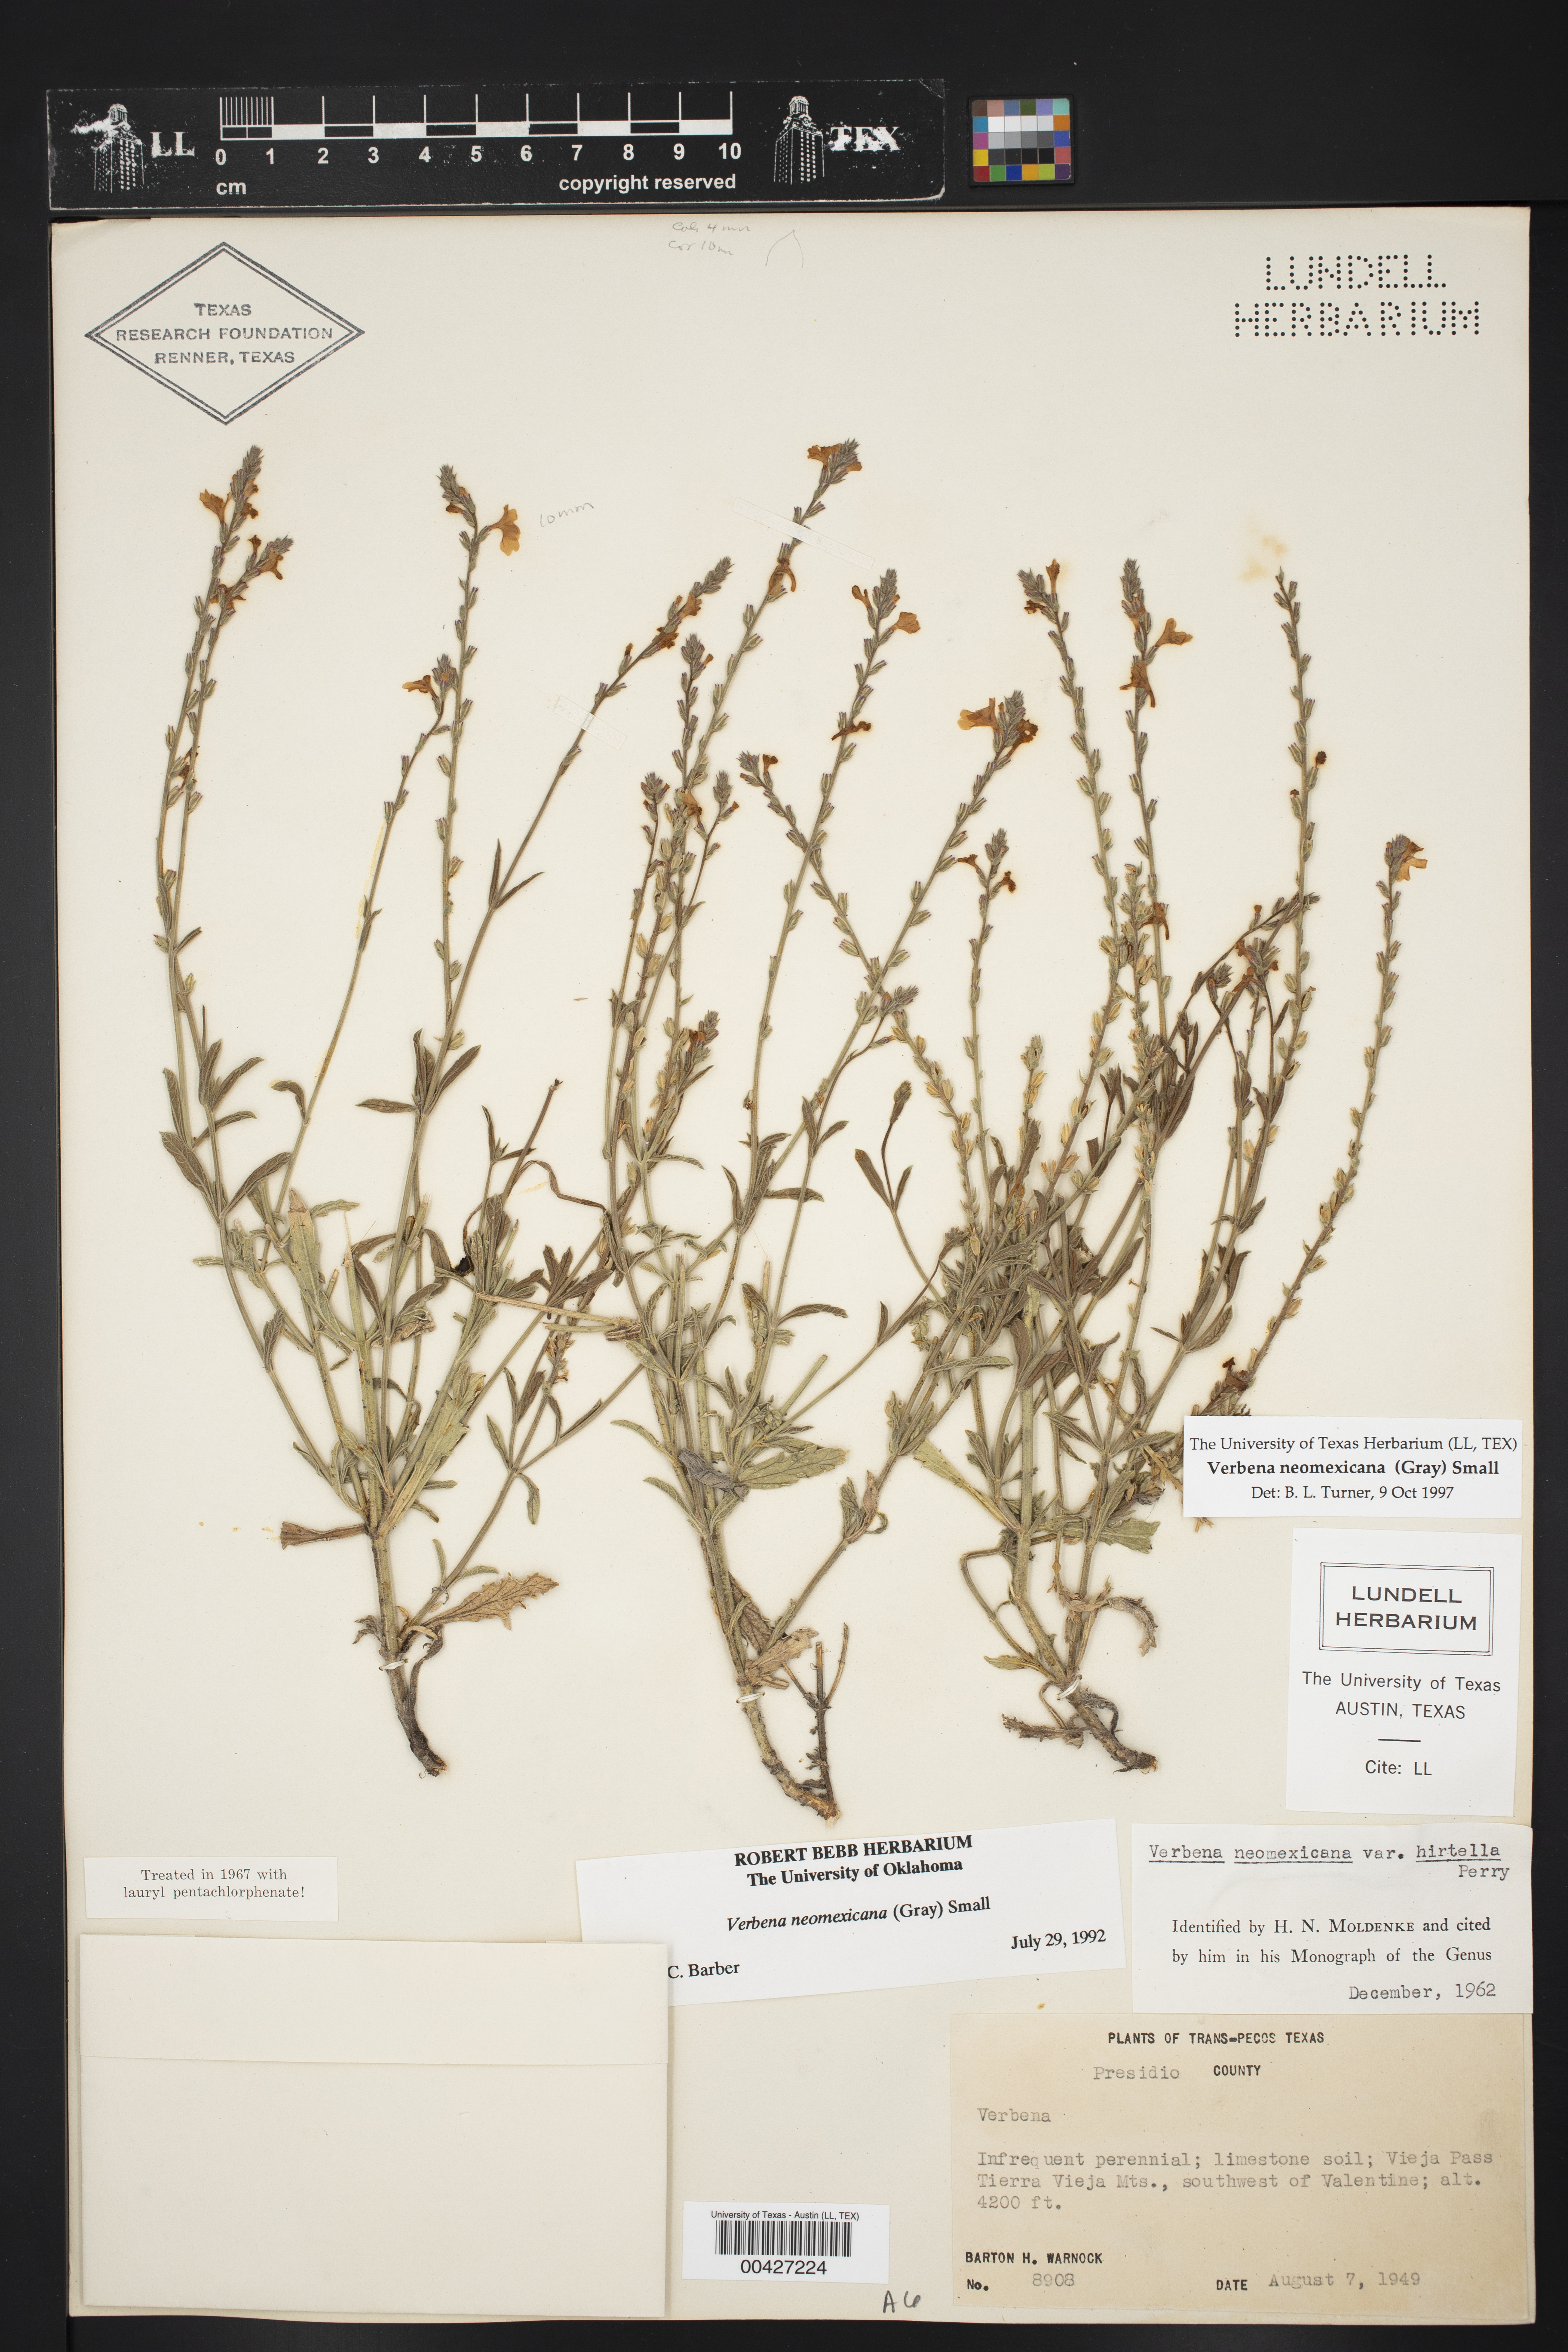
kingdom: Plantae
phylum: Tracheophyta
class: Magnoliopsida
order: Lamiales
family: Verbenaceae
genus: Verbena
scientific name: Verbena neomexicana
